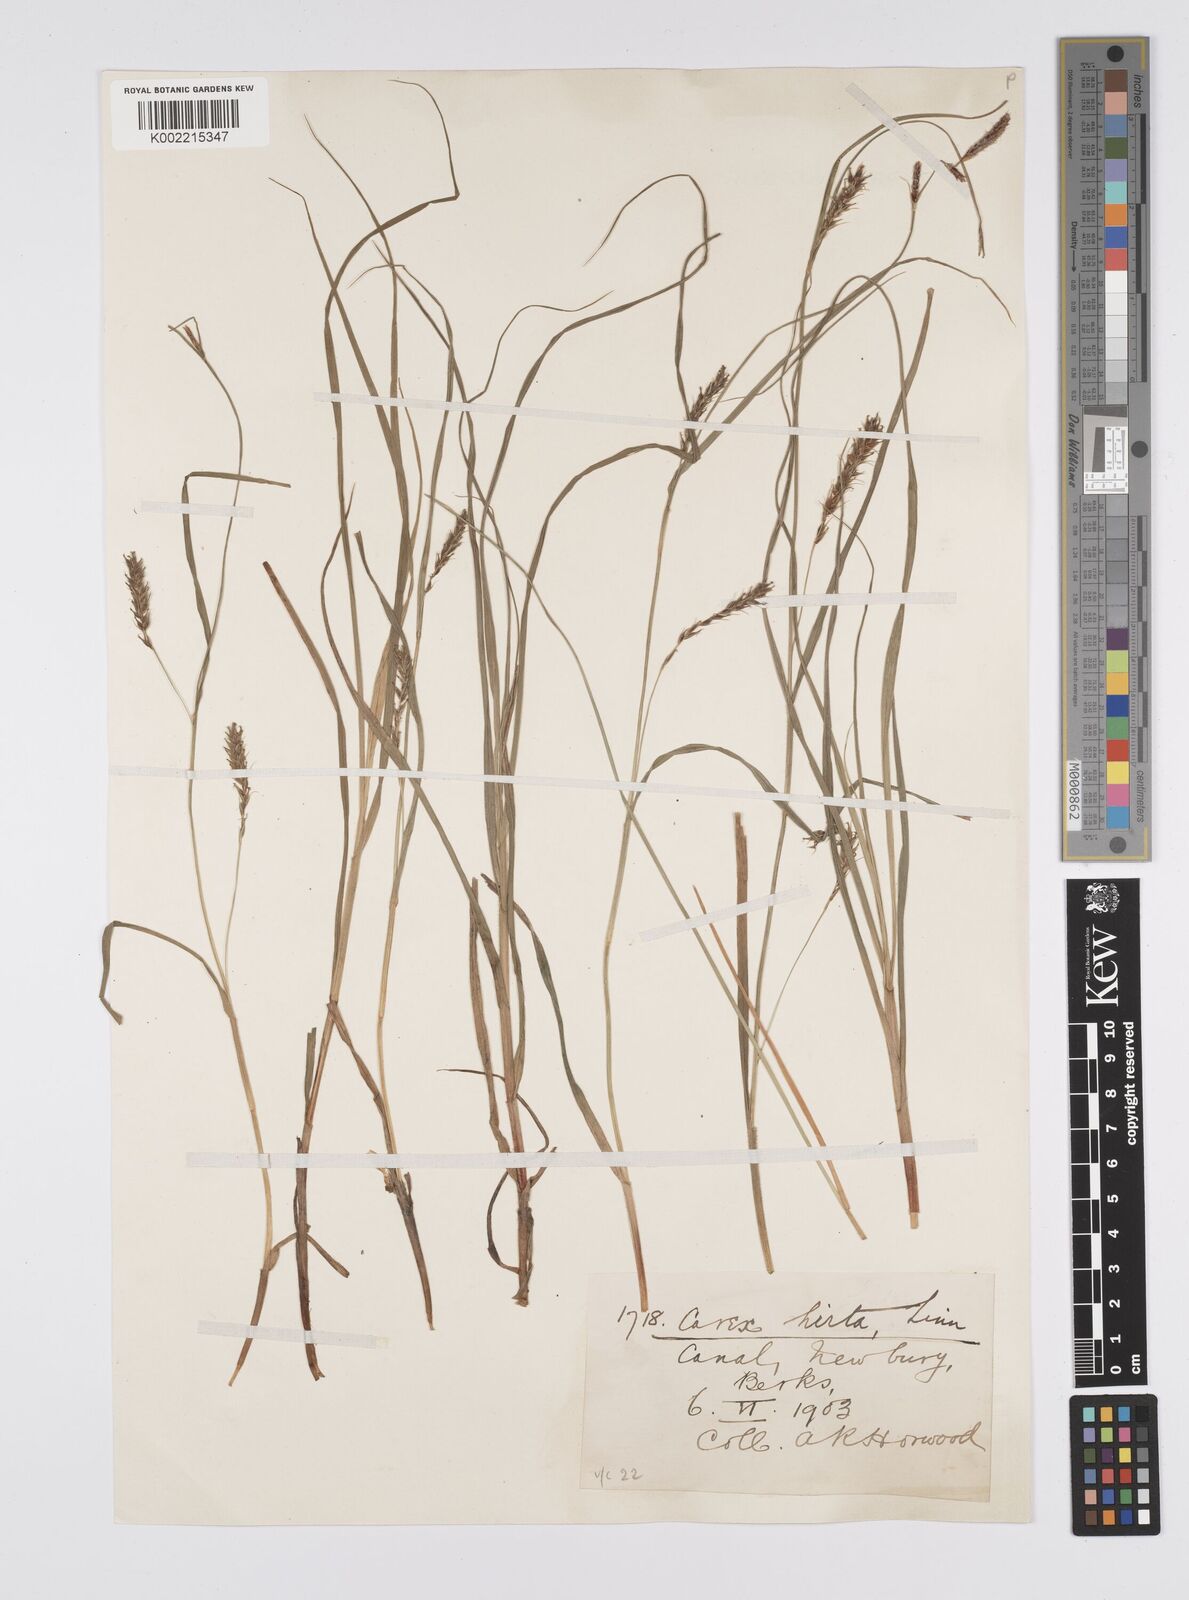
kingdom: Plantae
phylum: Tracheophyta
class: Liliopsida
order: Poales
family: Cyperaceae
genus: Carex
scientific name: Carex hirta
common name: Hairy sedge
